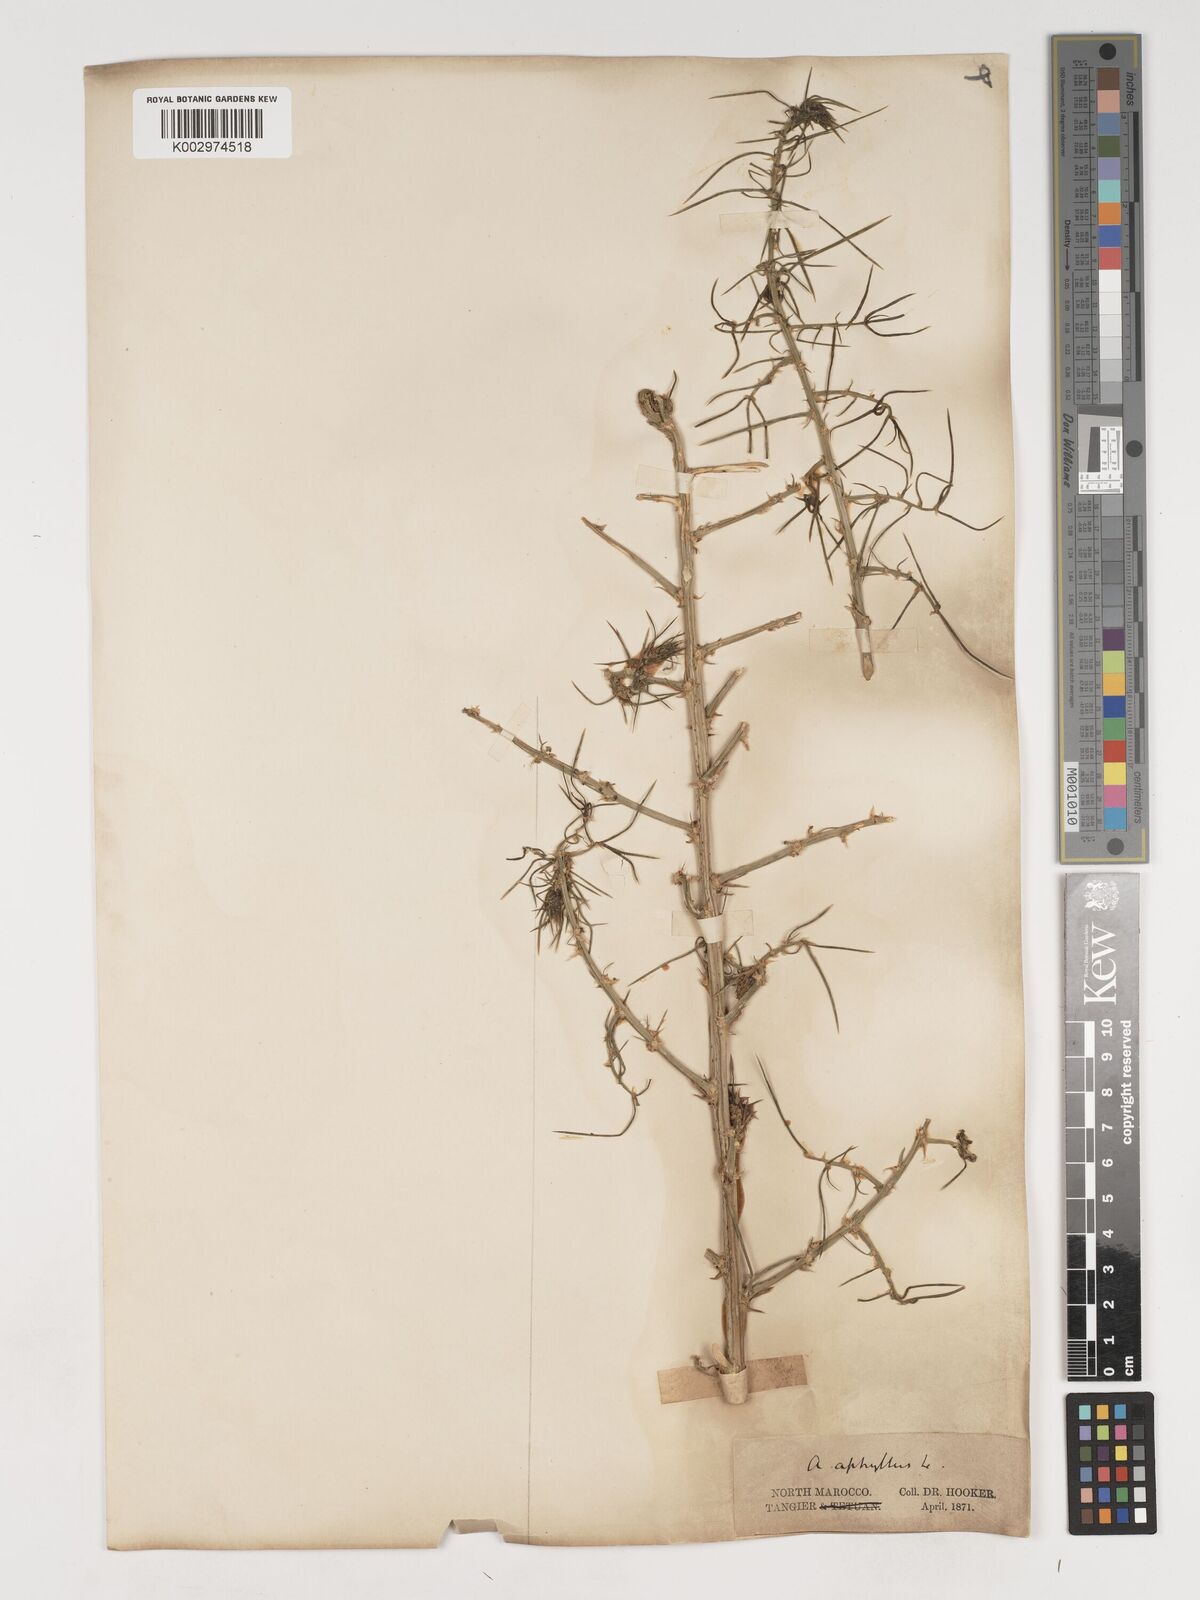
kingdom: Plantae
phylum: Tracheophyta
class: Liliopsida
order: Asparagales
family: Asparagaceae
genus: Asparagus
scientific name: Asparagus horridus
